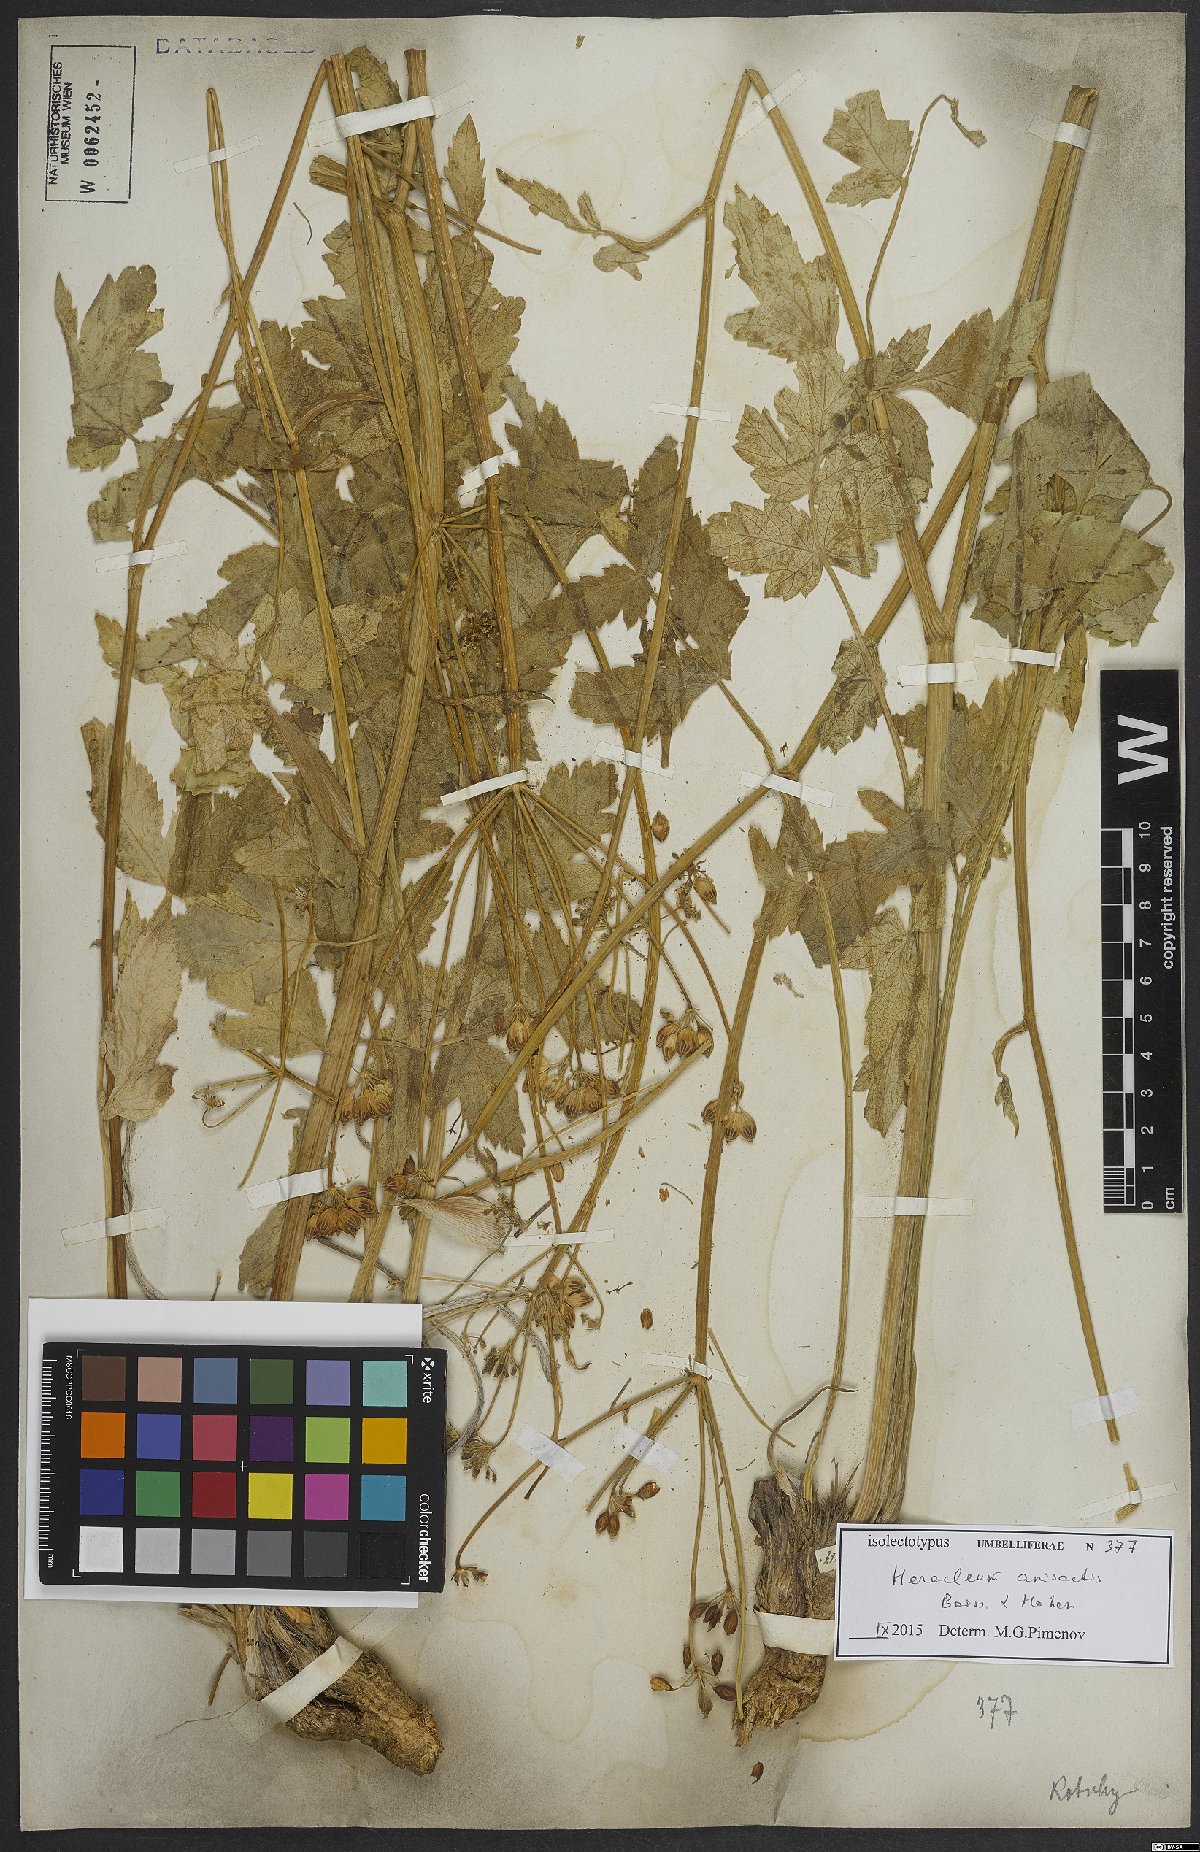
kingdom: Plantae
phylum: Tracheophyta
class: Magnoliopsida
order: Apiales
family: Apiaceae
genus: Heracleum
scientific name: Heracleum anisactis
